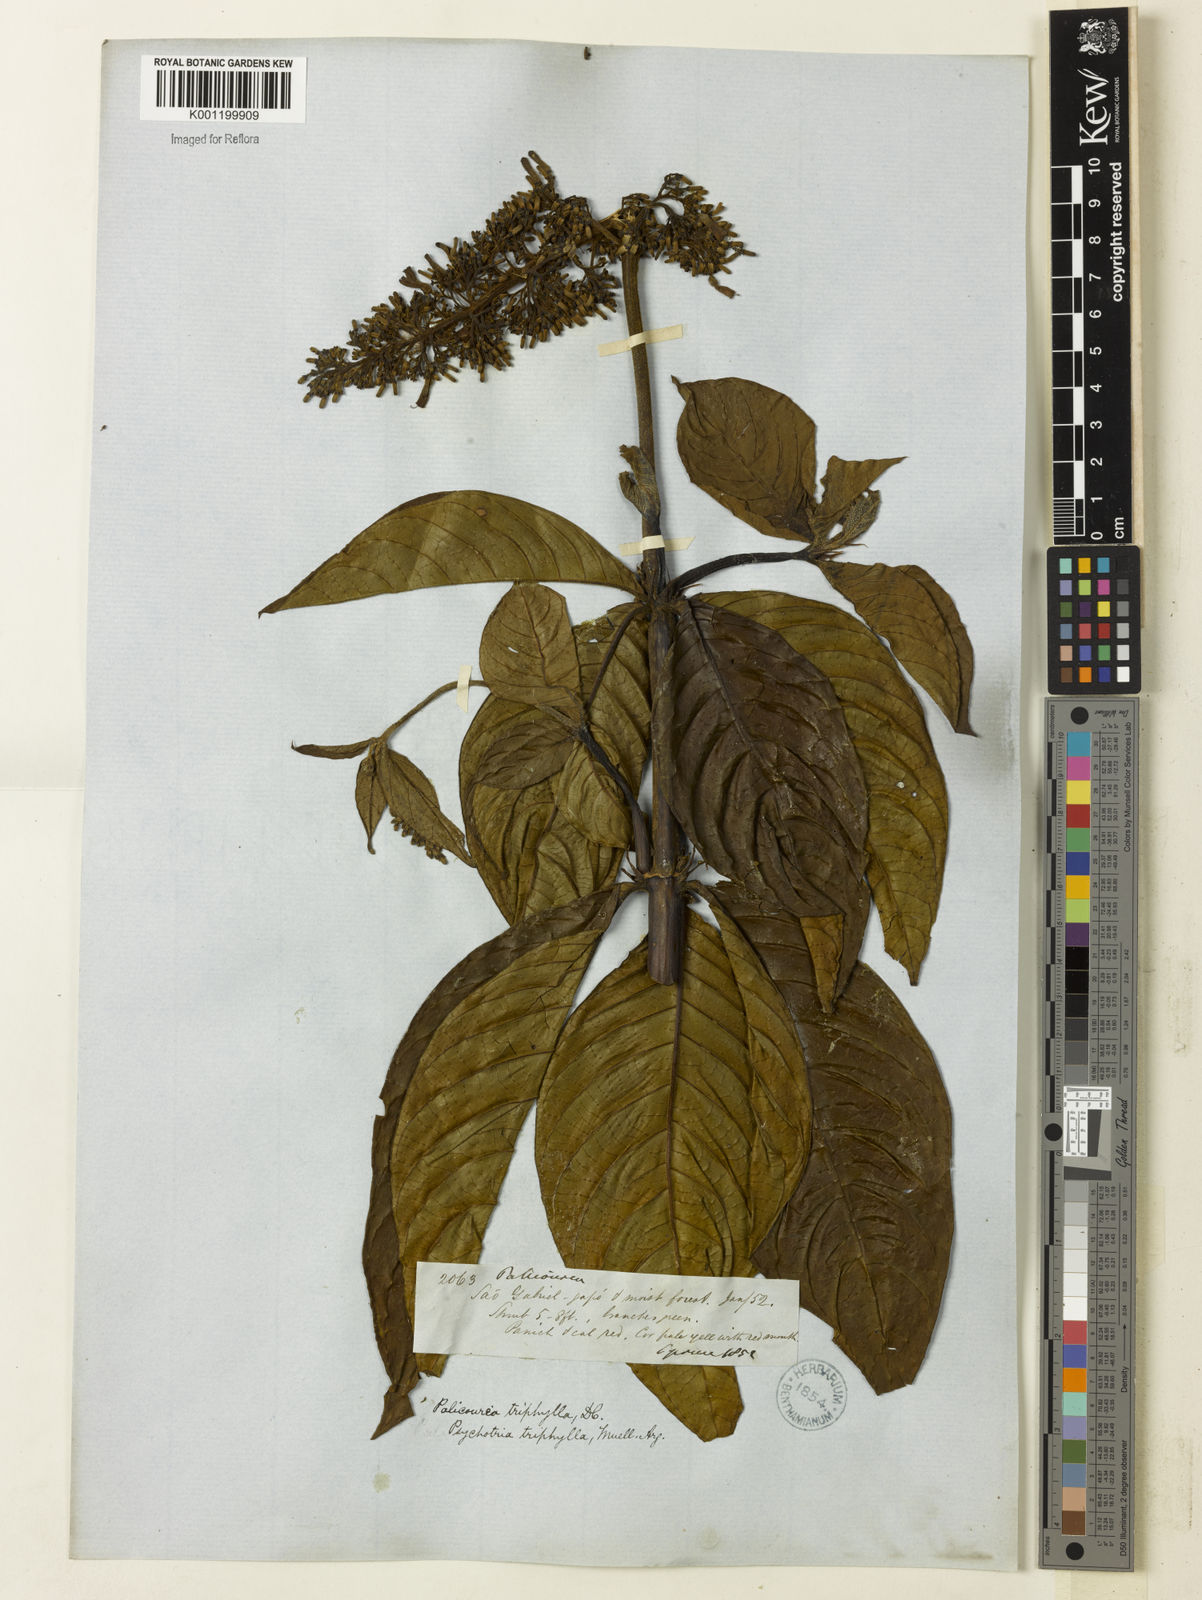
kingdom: Plantae
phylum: Tracheophyta
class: Magnoliopsida
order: Gentianales
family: Rubiaceae
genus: Palicourea
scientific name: Palicourea triphylla
